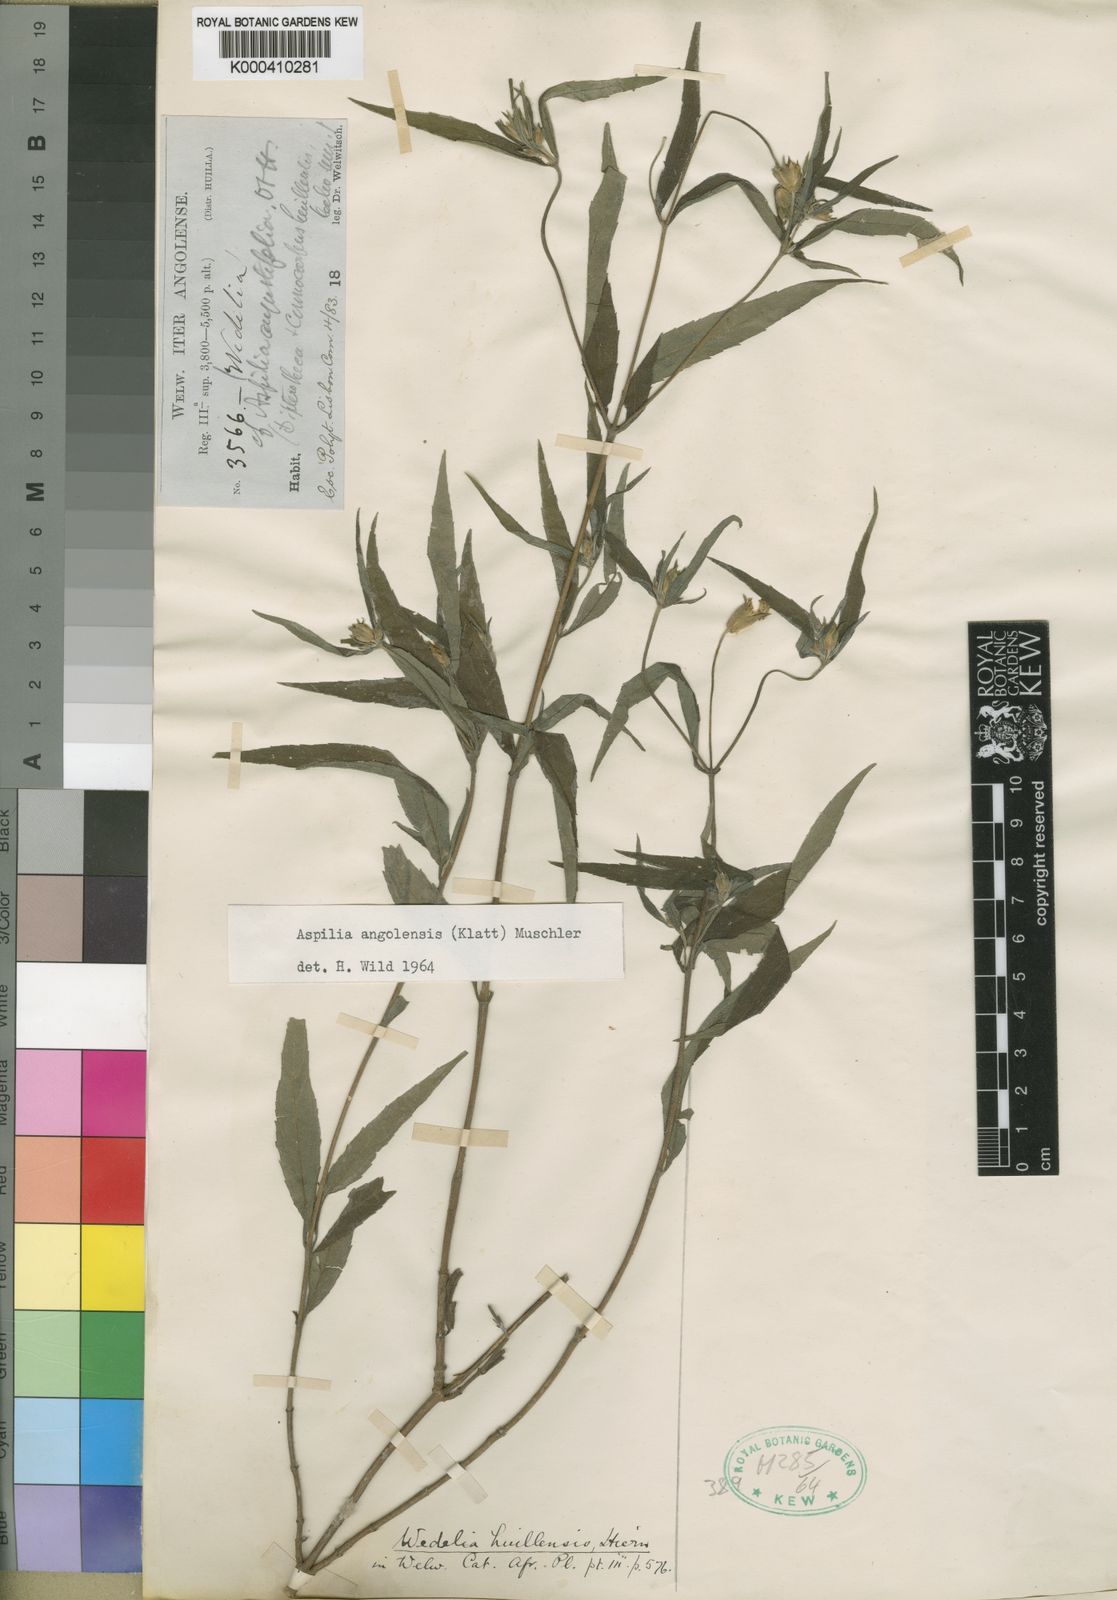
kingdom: Plantae
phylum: Tracheophyta
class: Magnoliopsida
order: Asterales
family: Asteraceae
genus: Aspilia
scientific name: Aspilia angolensis
